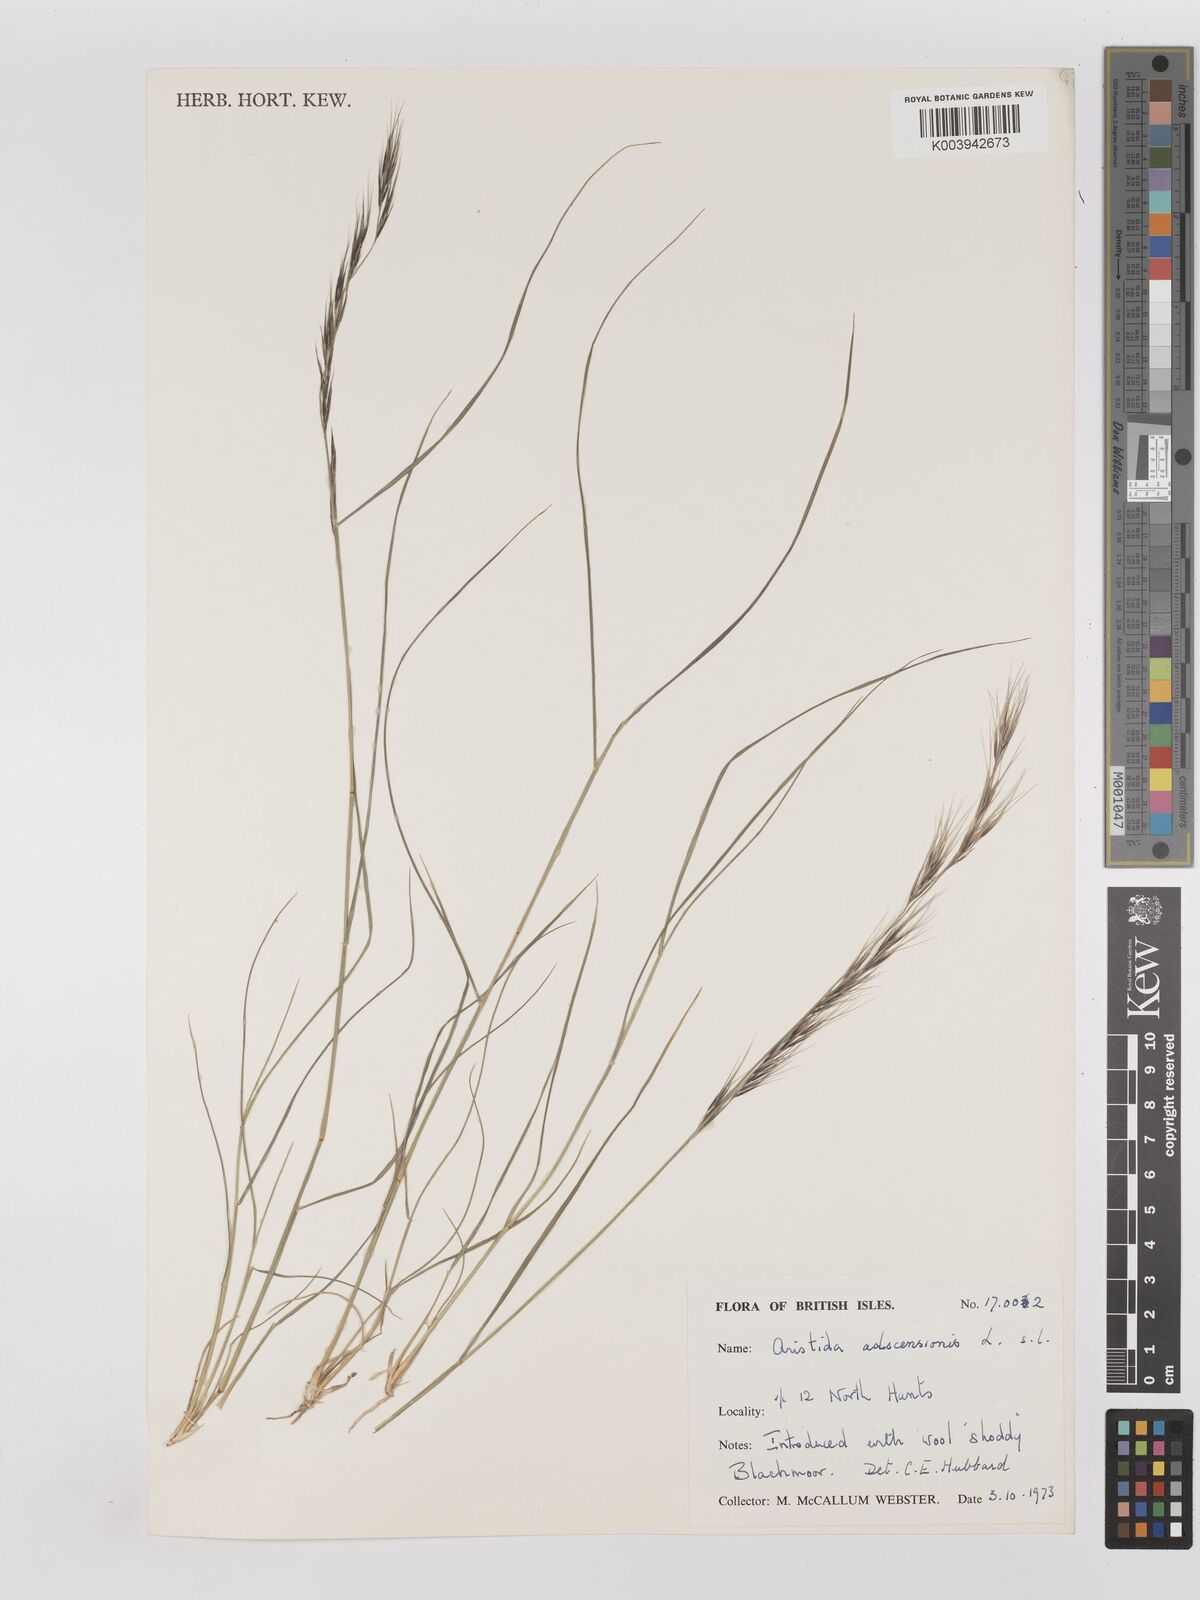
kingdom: Plantae
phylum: Tracheophyta
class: Liliopsida
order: Poales
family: Poaceae
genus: Aristida
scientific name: Aristida adscensionis
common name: Sixweeks threeawn
